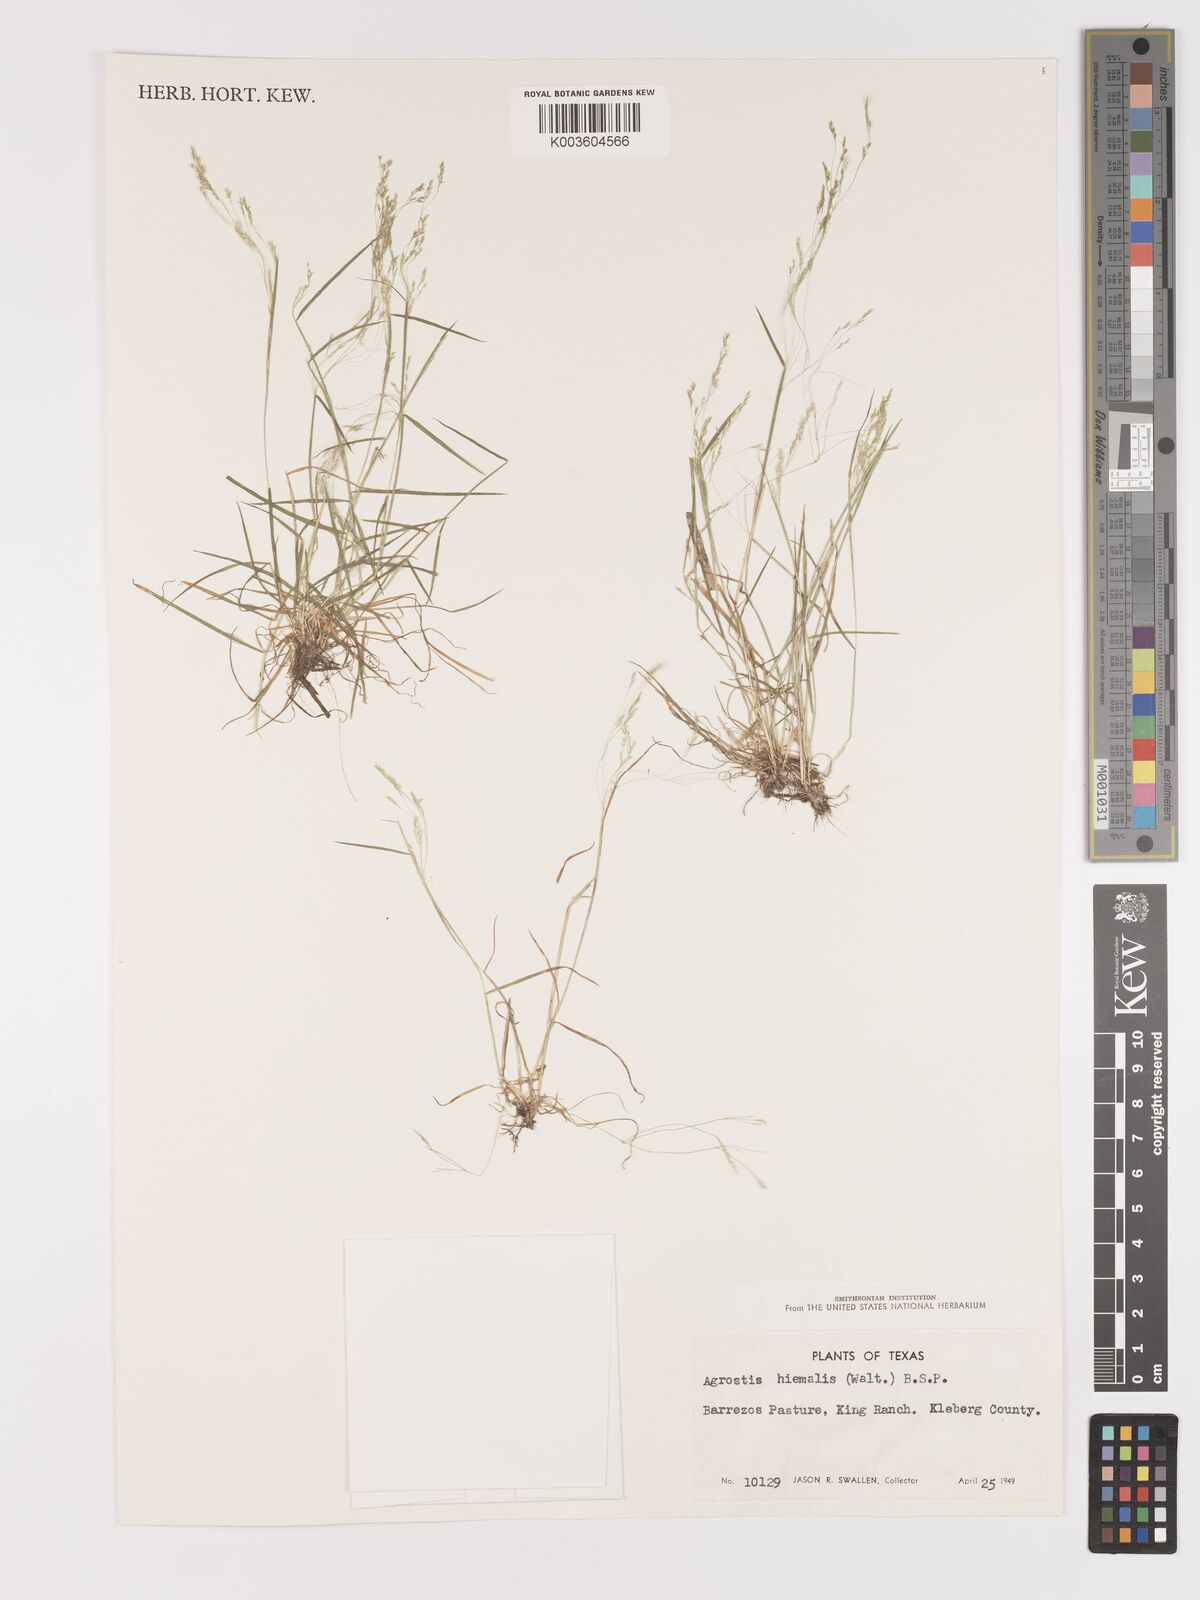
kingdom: Plantae
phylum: Tracheophyta
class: Liliopsida
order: Poales
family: Poaceae
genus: Agrostis
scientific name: Agrostis hyemalis
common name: Small bent
